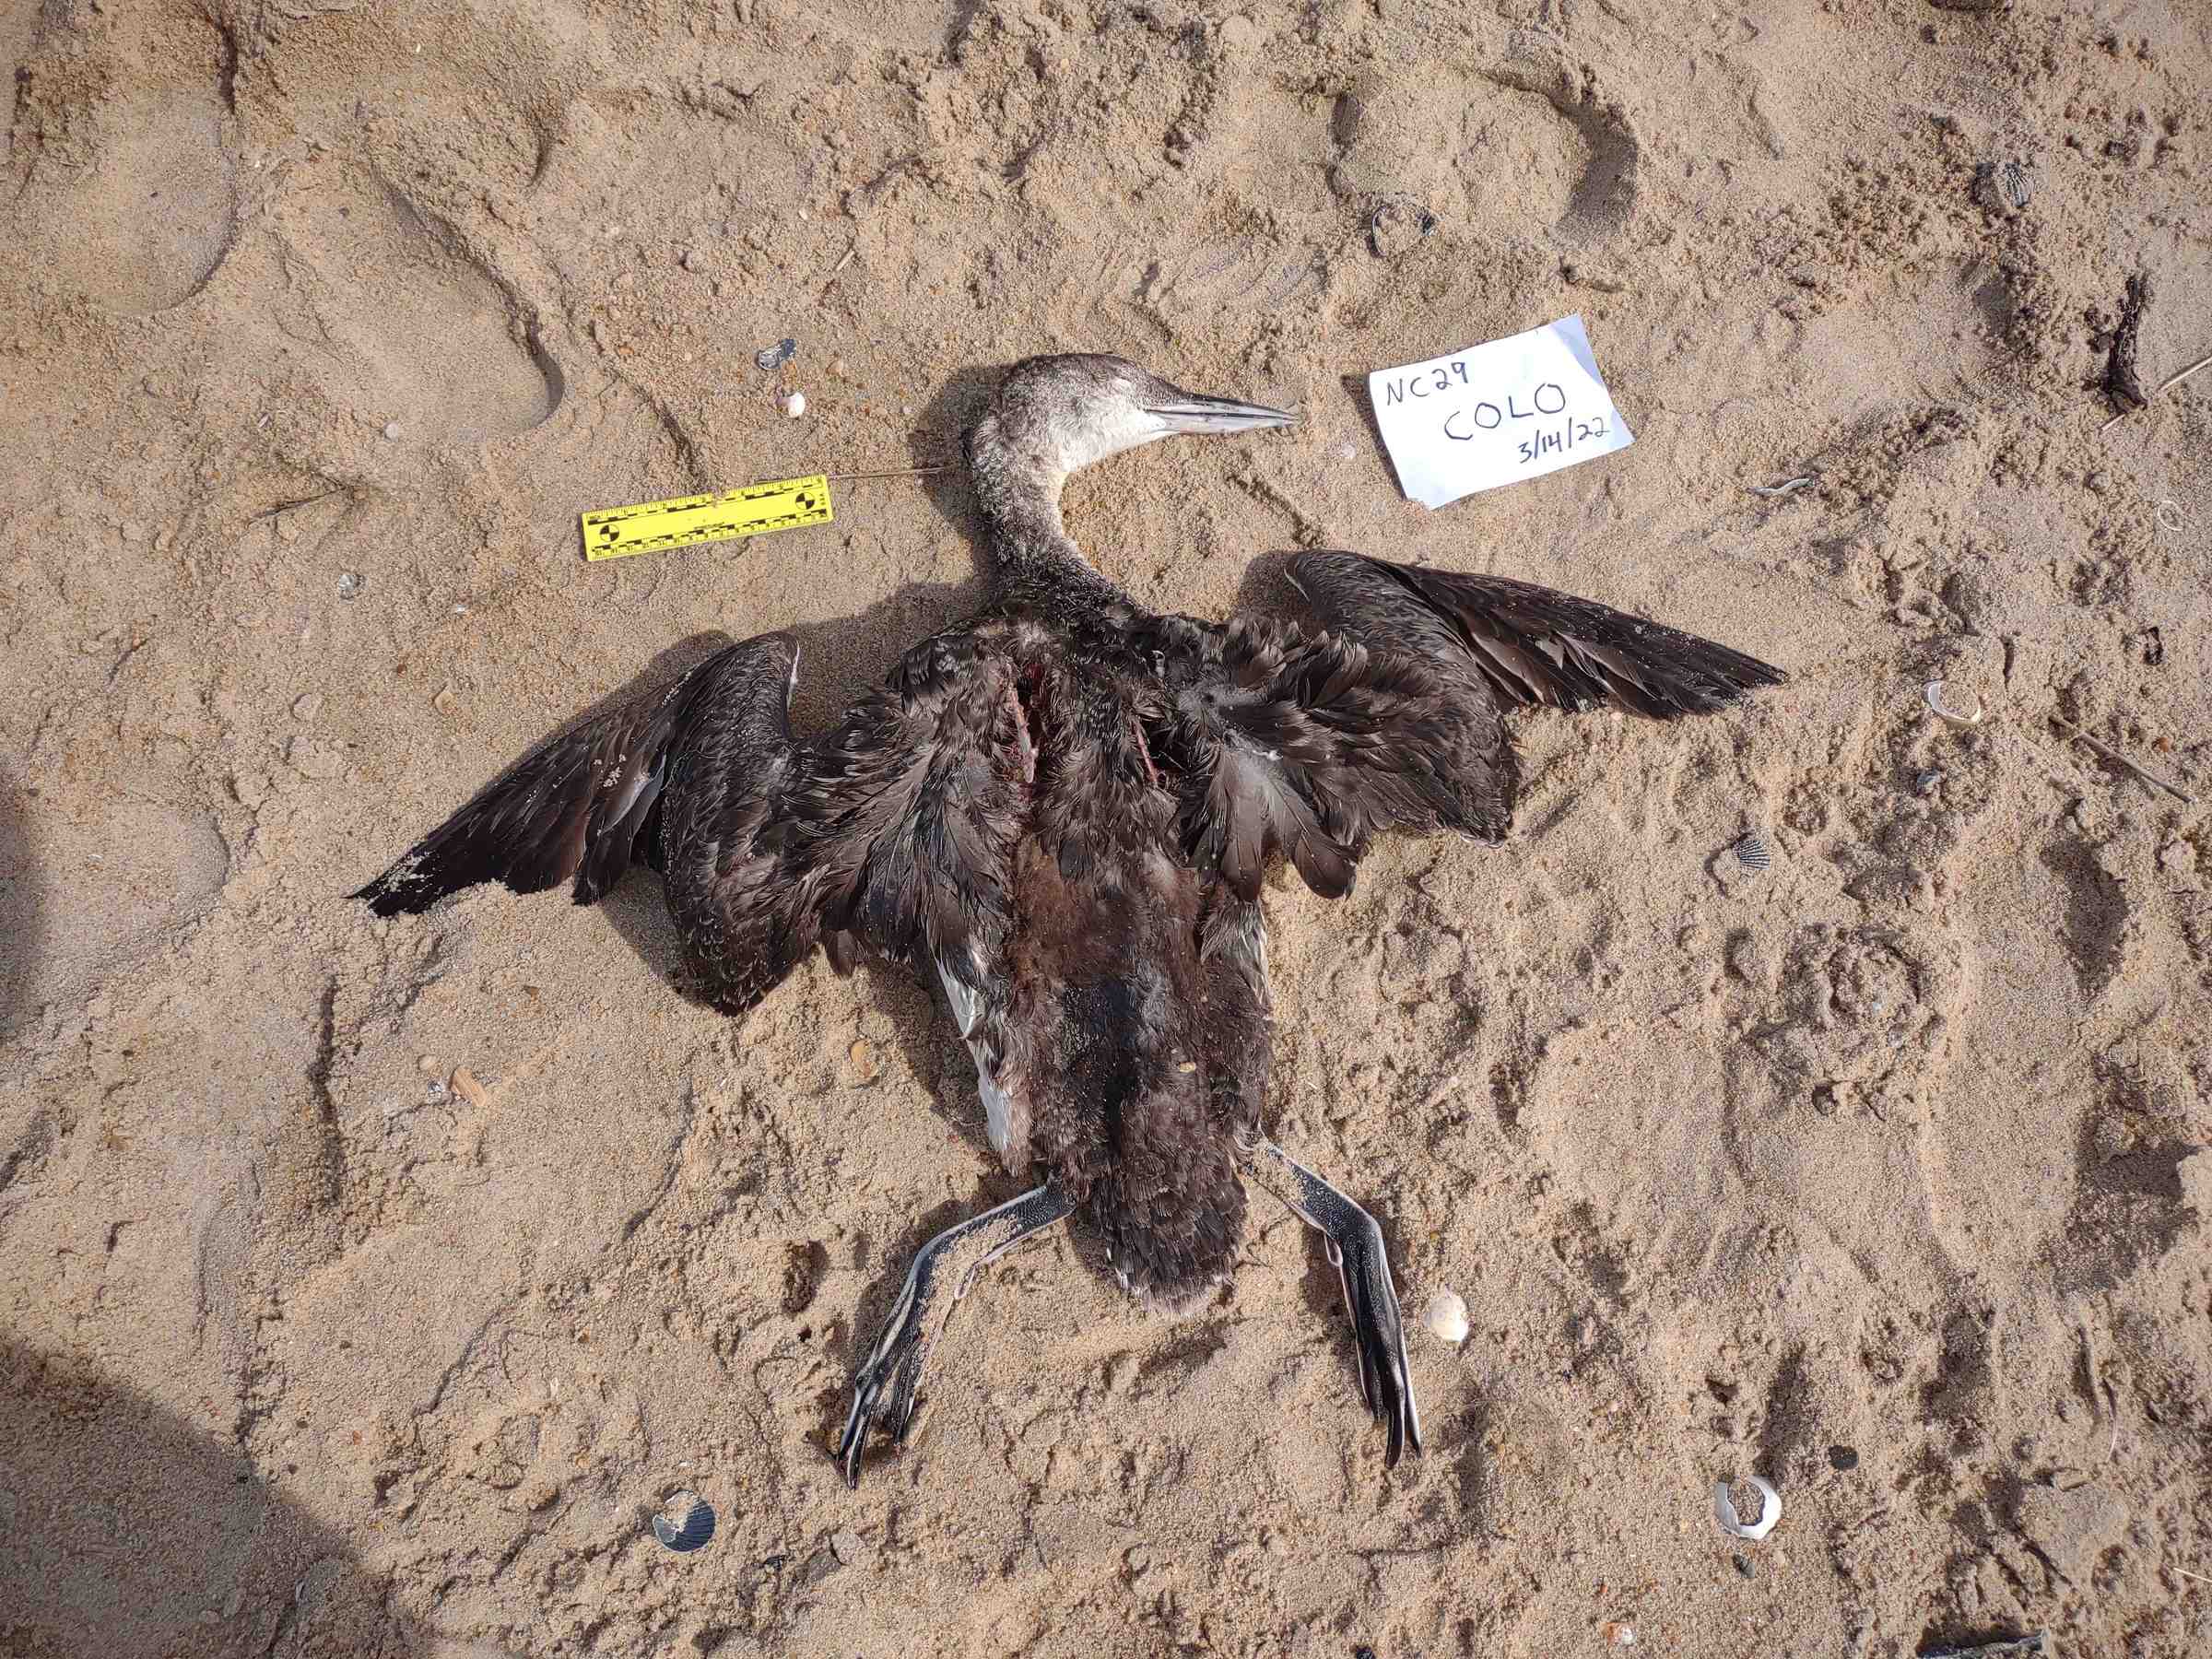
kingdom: Animalia
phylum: Chordata
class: Aves
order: Gaviiformes
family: Gaviidae
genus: Gavia
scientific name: Gavia stellata
